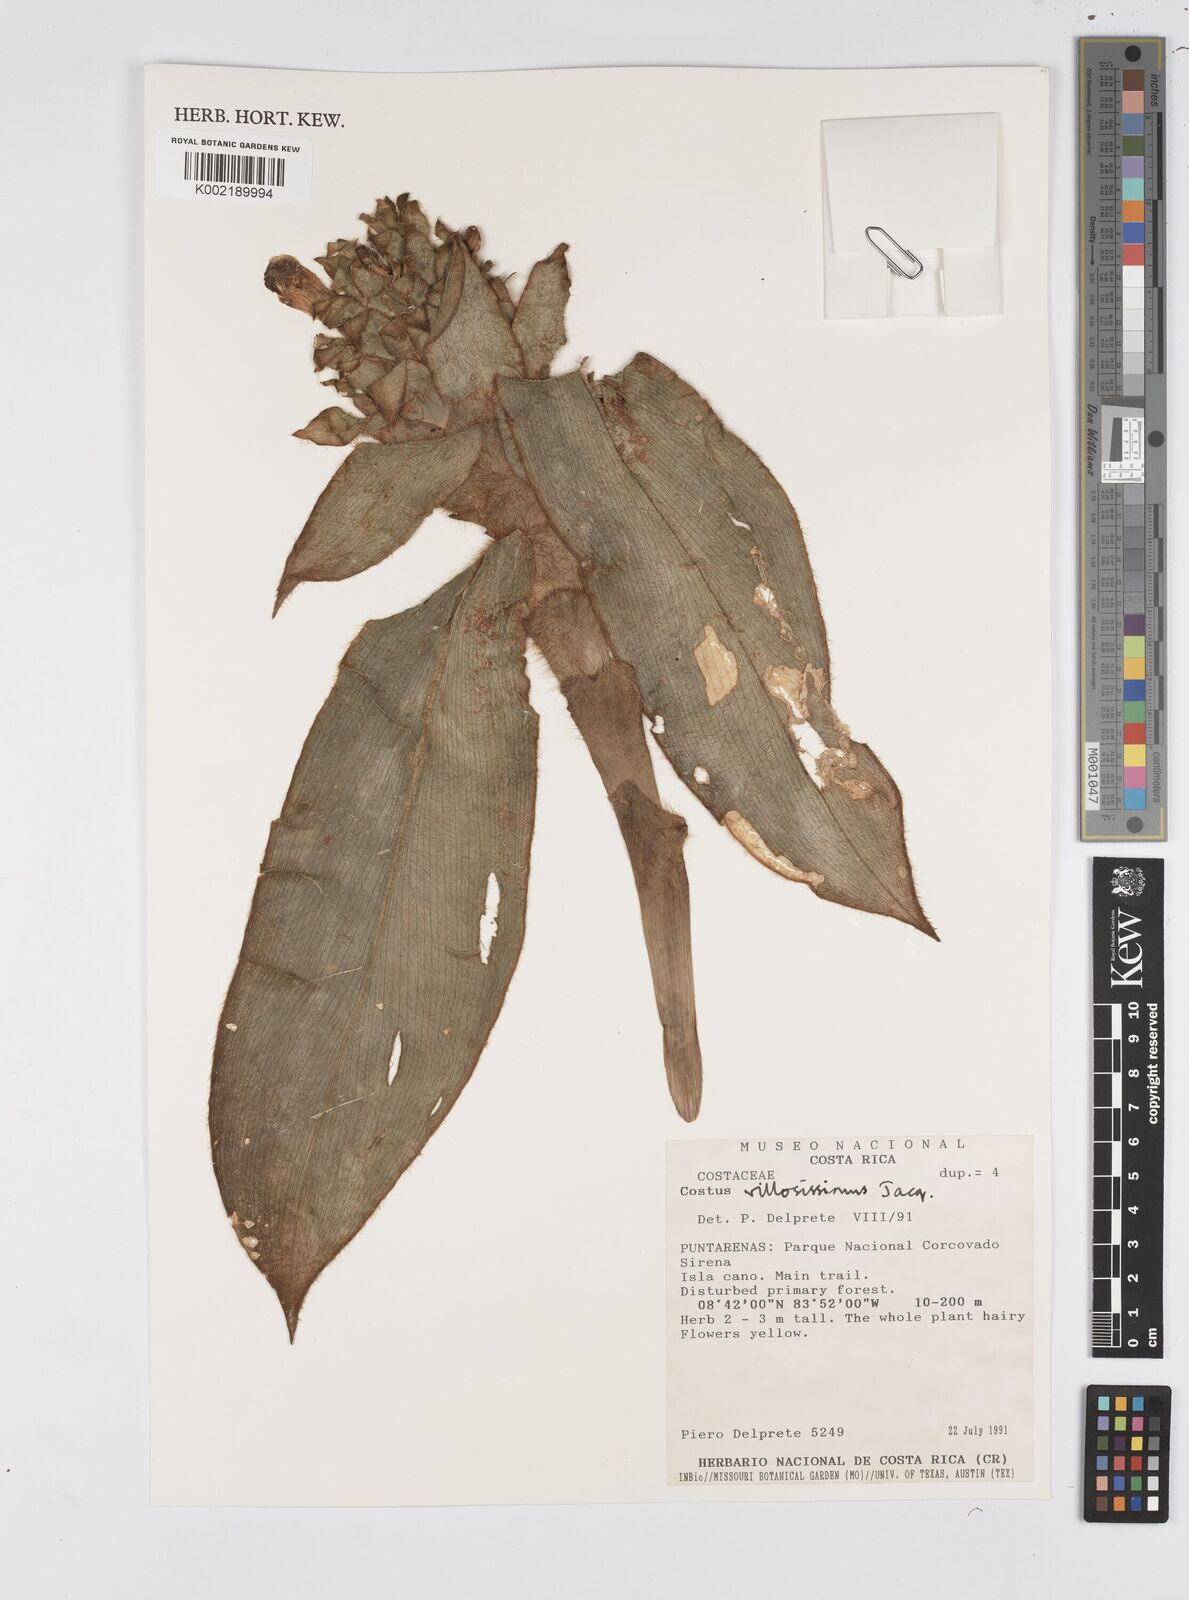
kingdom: Plantae
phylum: Tracheophyta
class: Liliopsida
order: Zingiberales
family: Costaceae
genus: Costus
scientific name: Costus laevis
